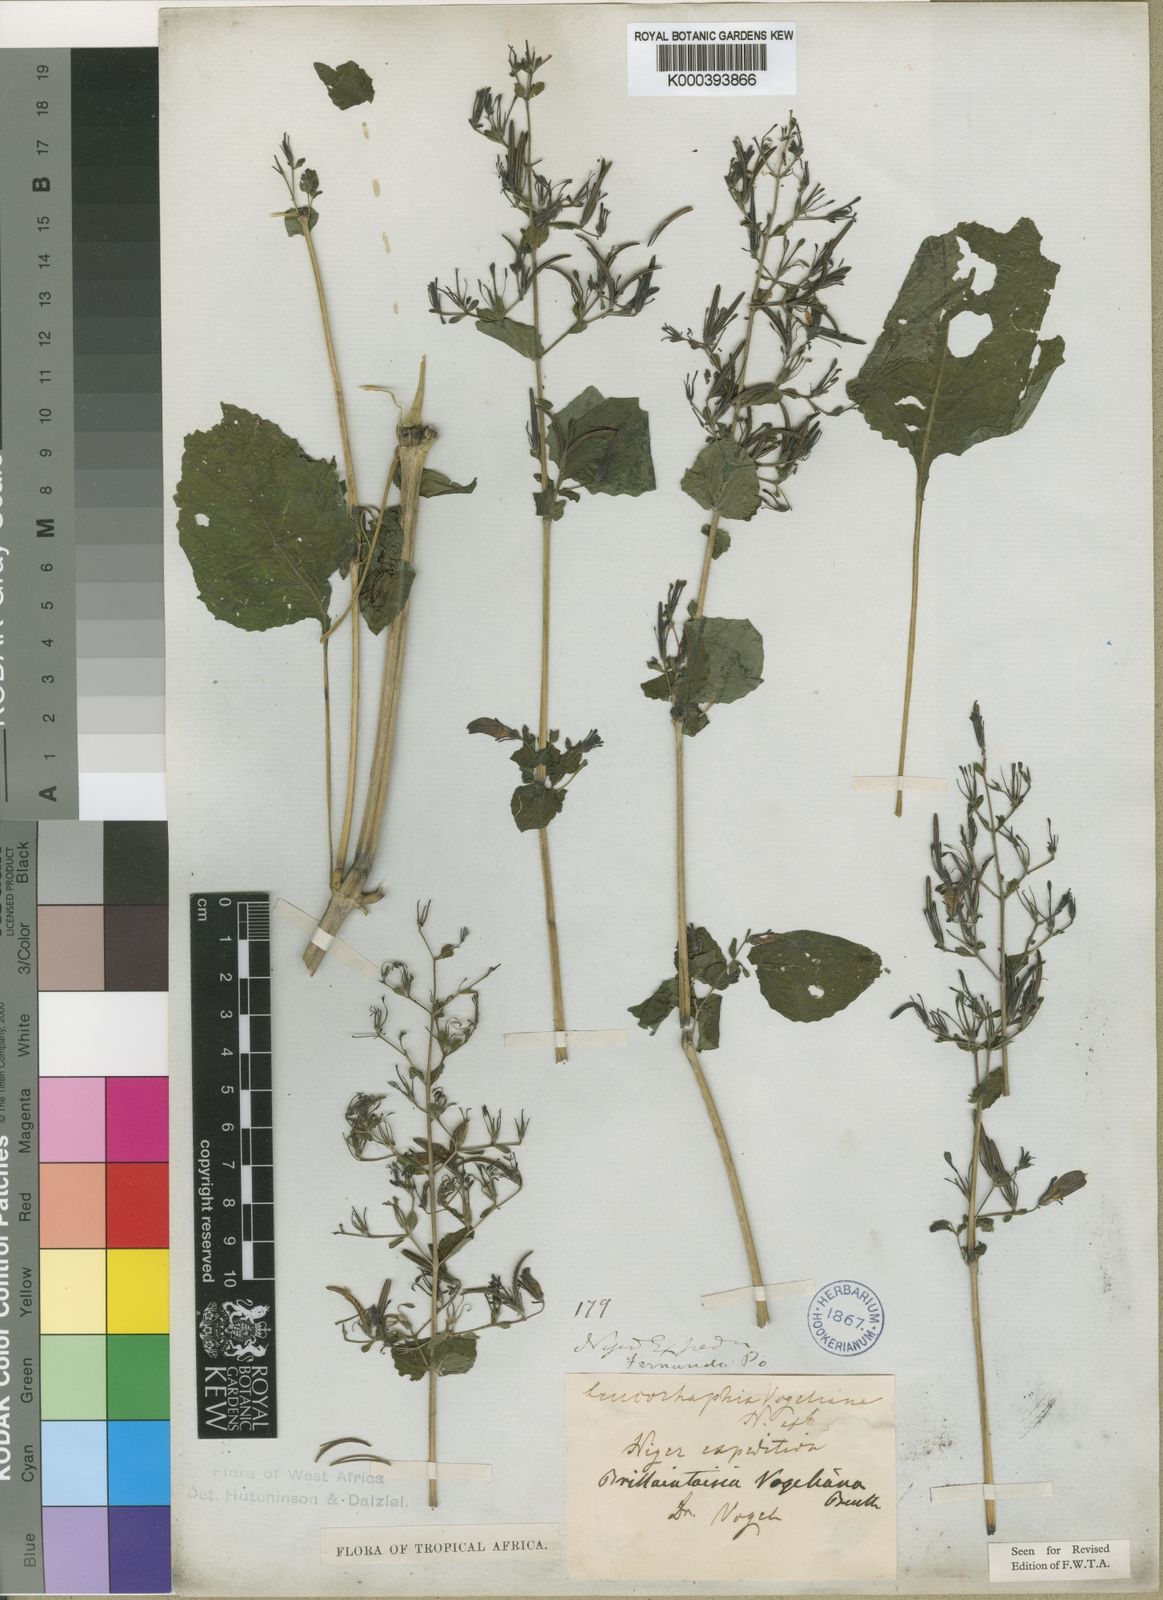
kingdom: Plantae
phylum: Tracheophyta
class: Magnoliopsida
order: Lamiales
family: Acanthaceae
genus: Brillantaisia
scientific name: Brillantaisia vogeliana
